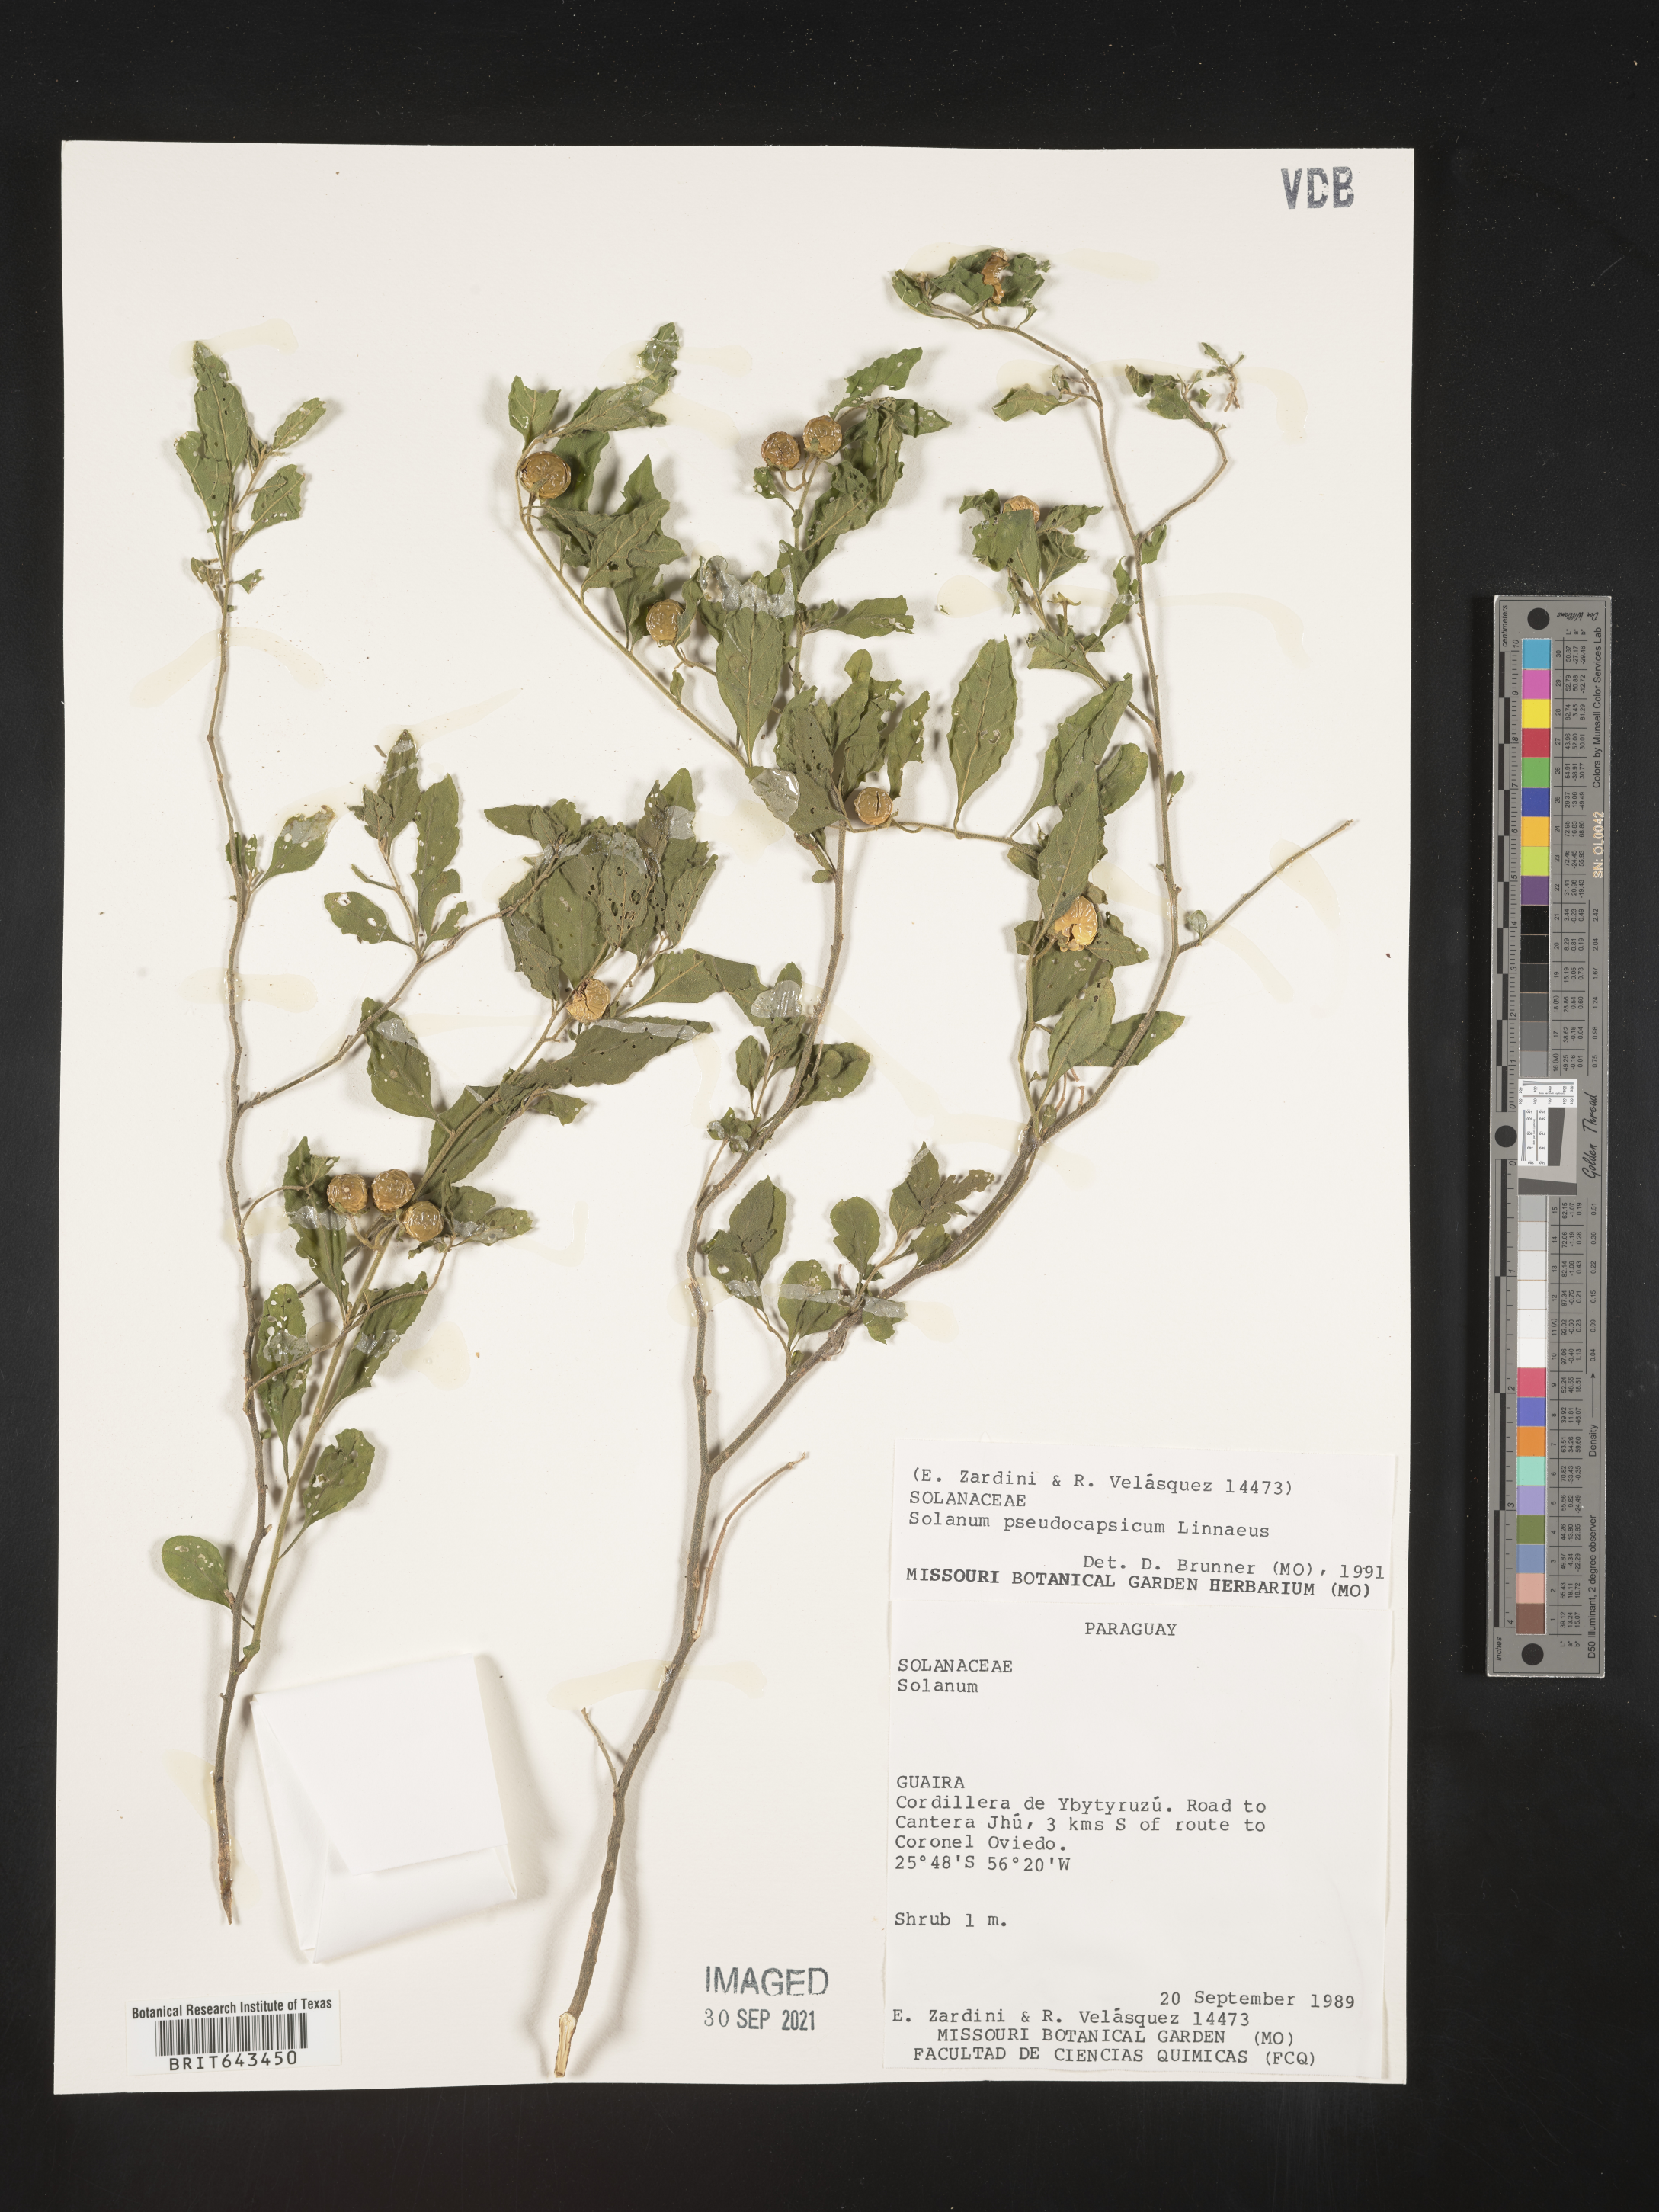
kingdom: Plantae
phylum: Tracheophyta
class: Magnoliopsida
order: Solanales
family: Solanaceae
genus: Solanum
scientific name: Solanum
